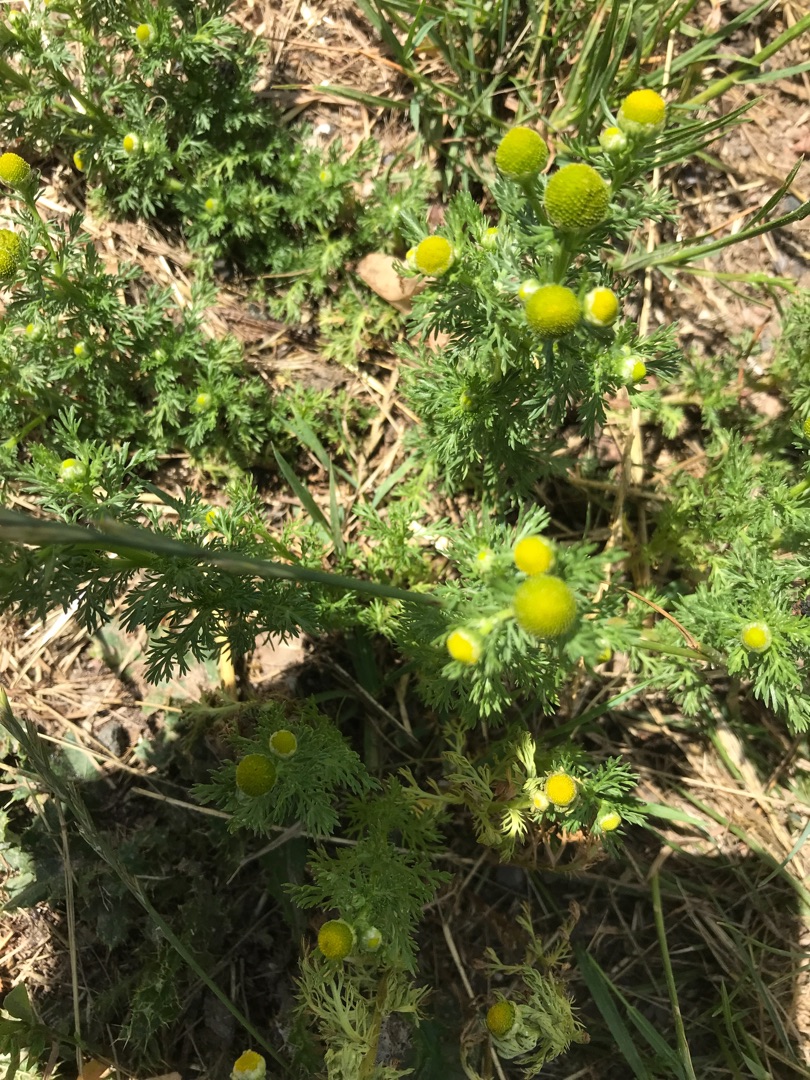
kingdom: Plantae
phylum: Tracheophyta
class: Magnoliopsida
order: Asterales
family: Asteraceae
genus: Matricaria
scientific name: Matricaria discoidea
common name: Skive-kamille
